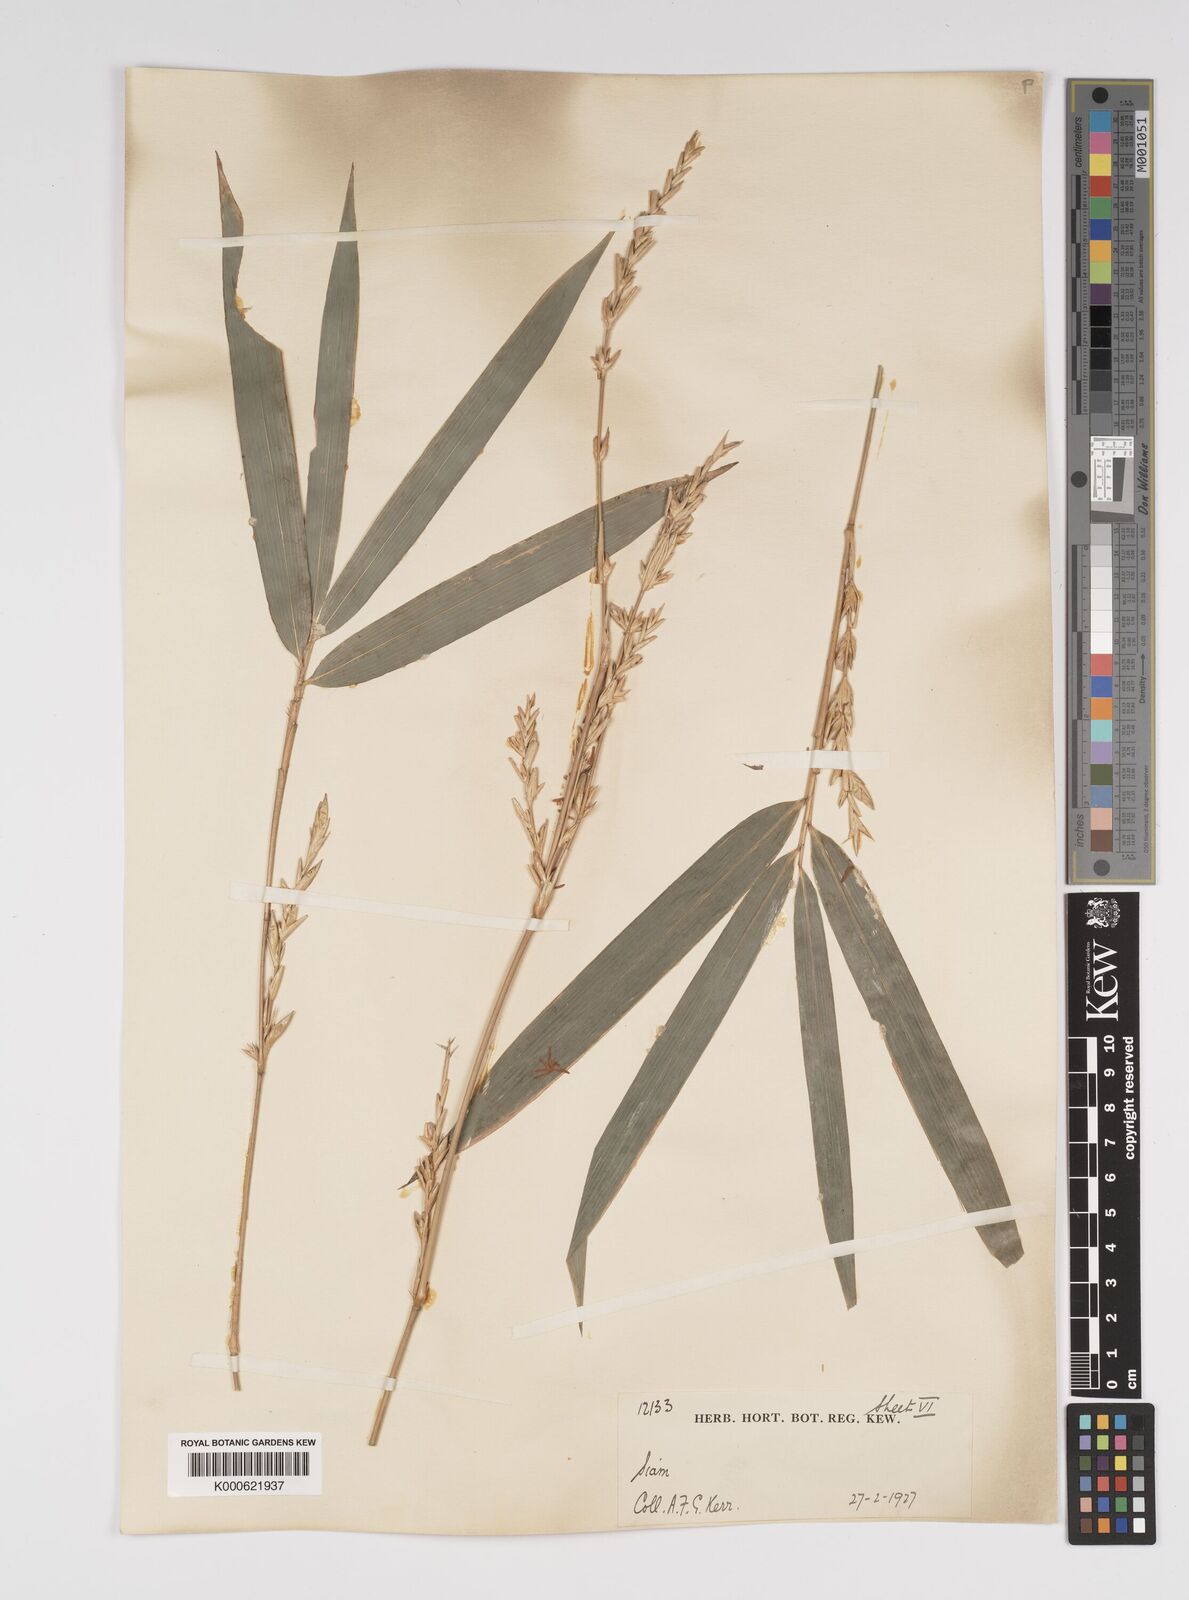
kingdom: Plantae
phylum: Tracheophyta
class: Liliopsida
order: Poales
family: Poaceae
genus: Bambusa
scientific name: Bambusa
